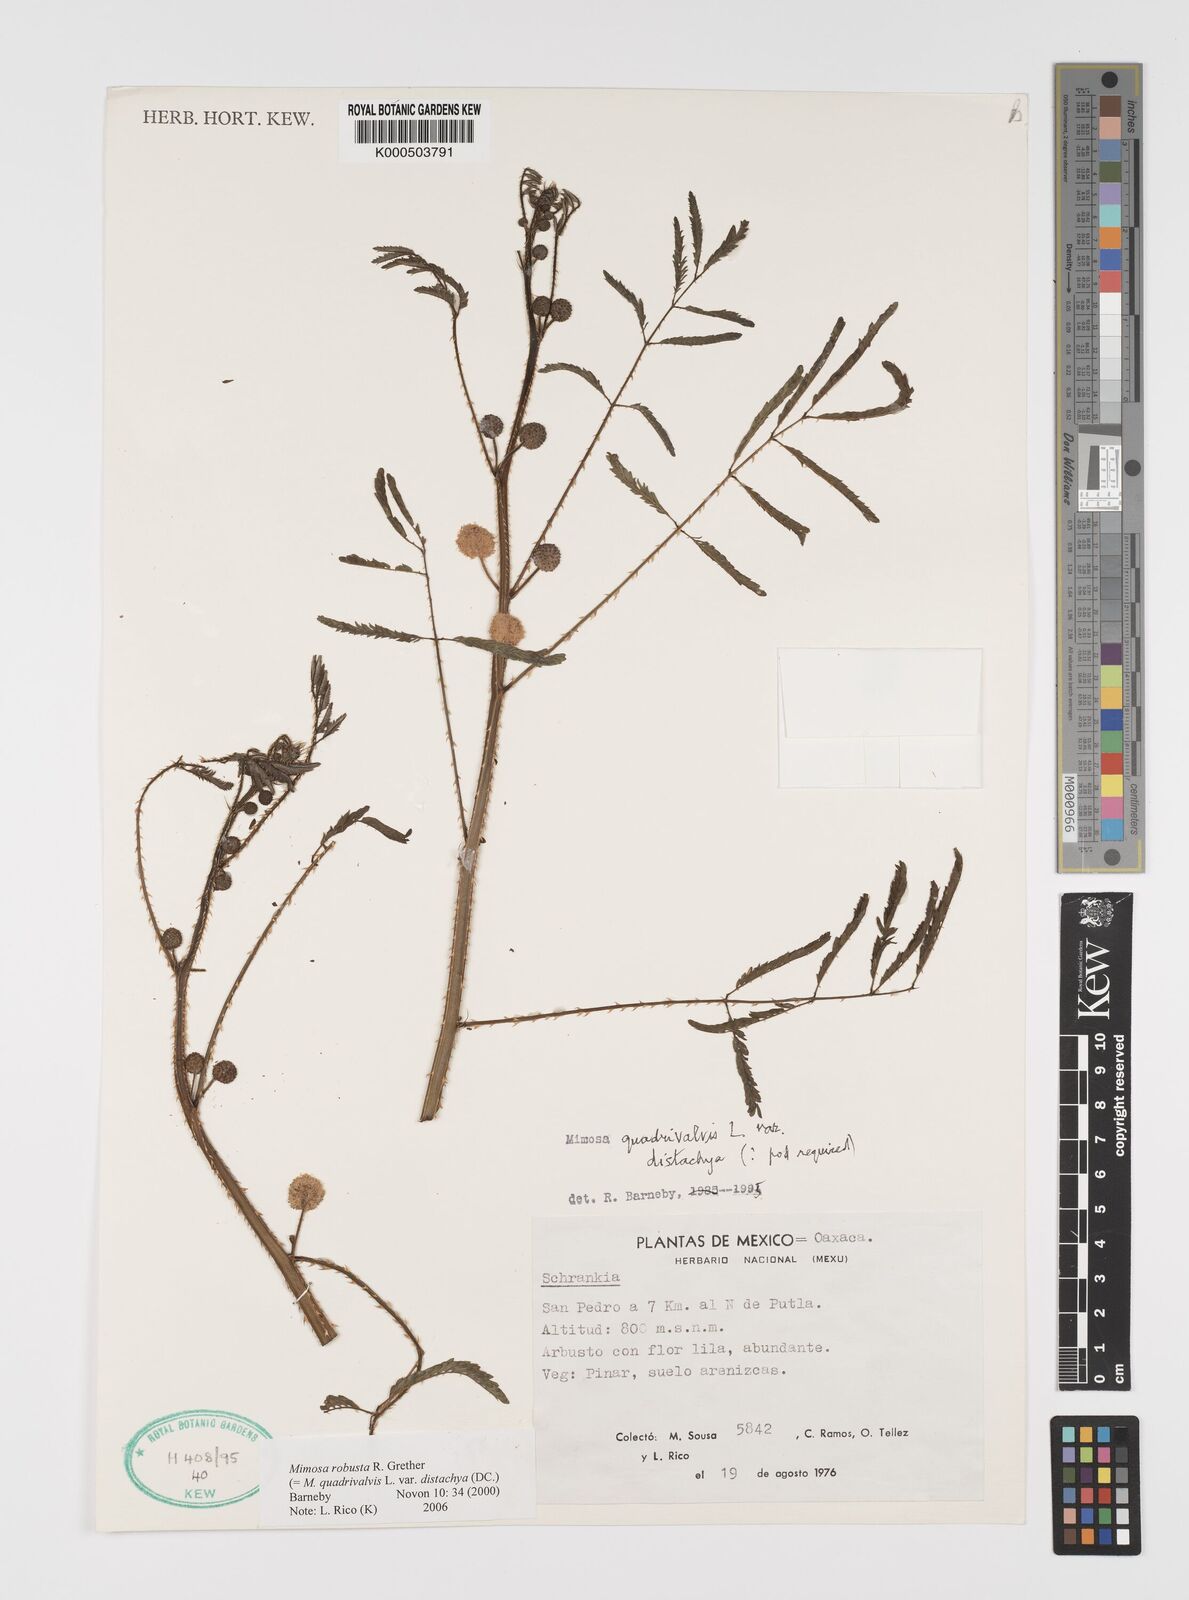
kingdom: Plantae
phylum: Tracheophyta
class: Magnoliopsida
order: Fabales
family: Fabaceae
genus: Mimosa
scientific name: Mimosa robusta
